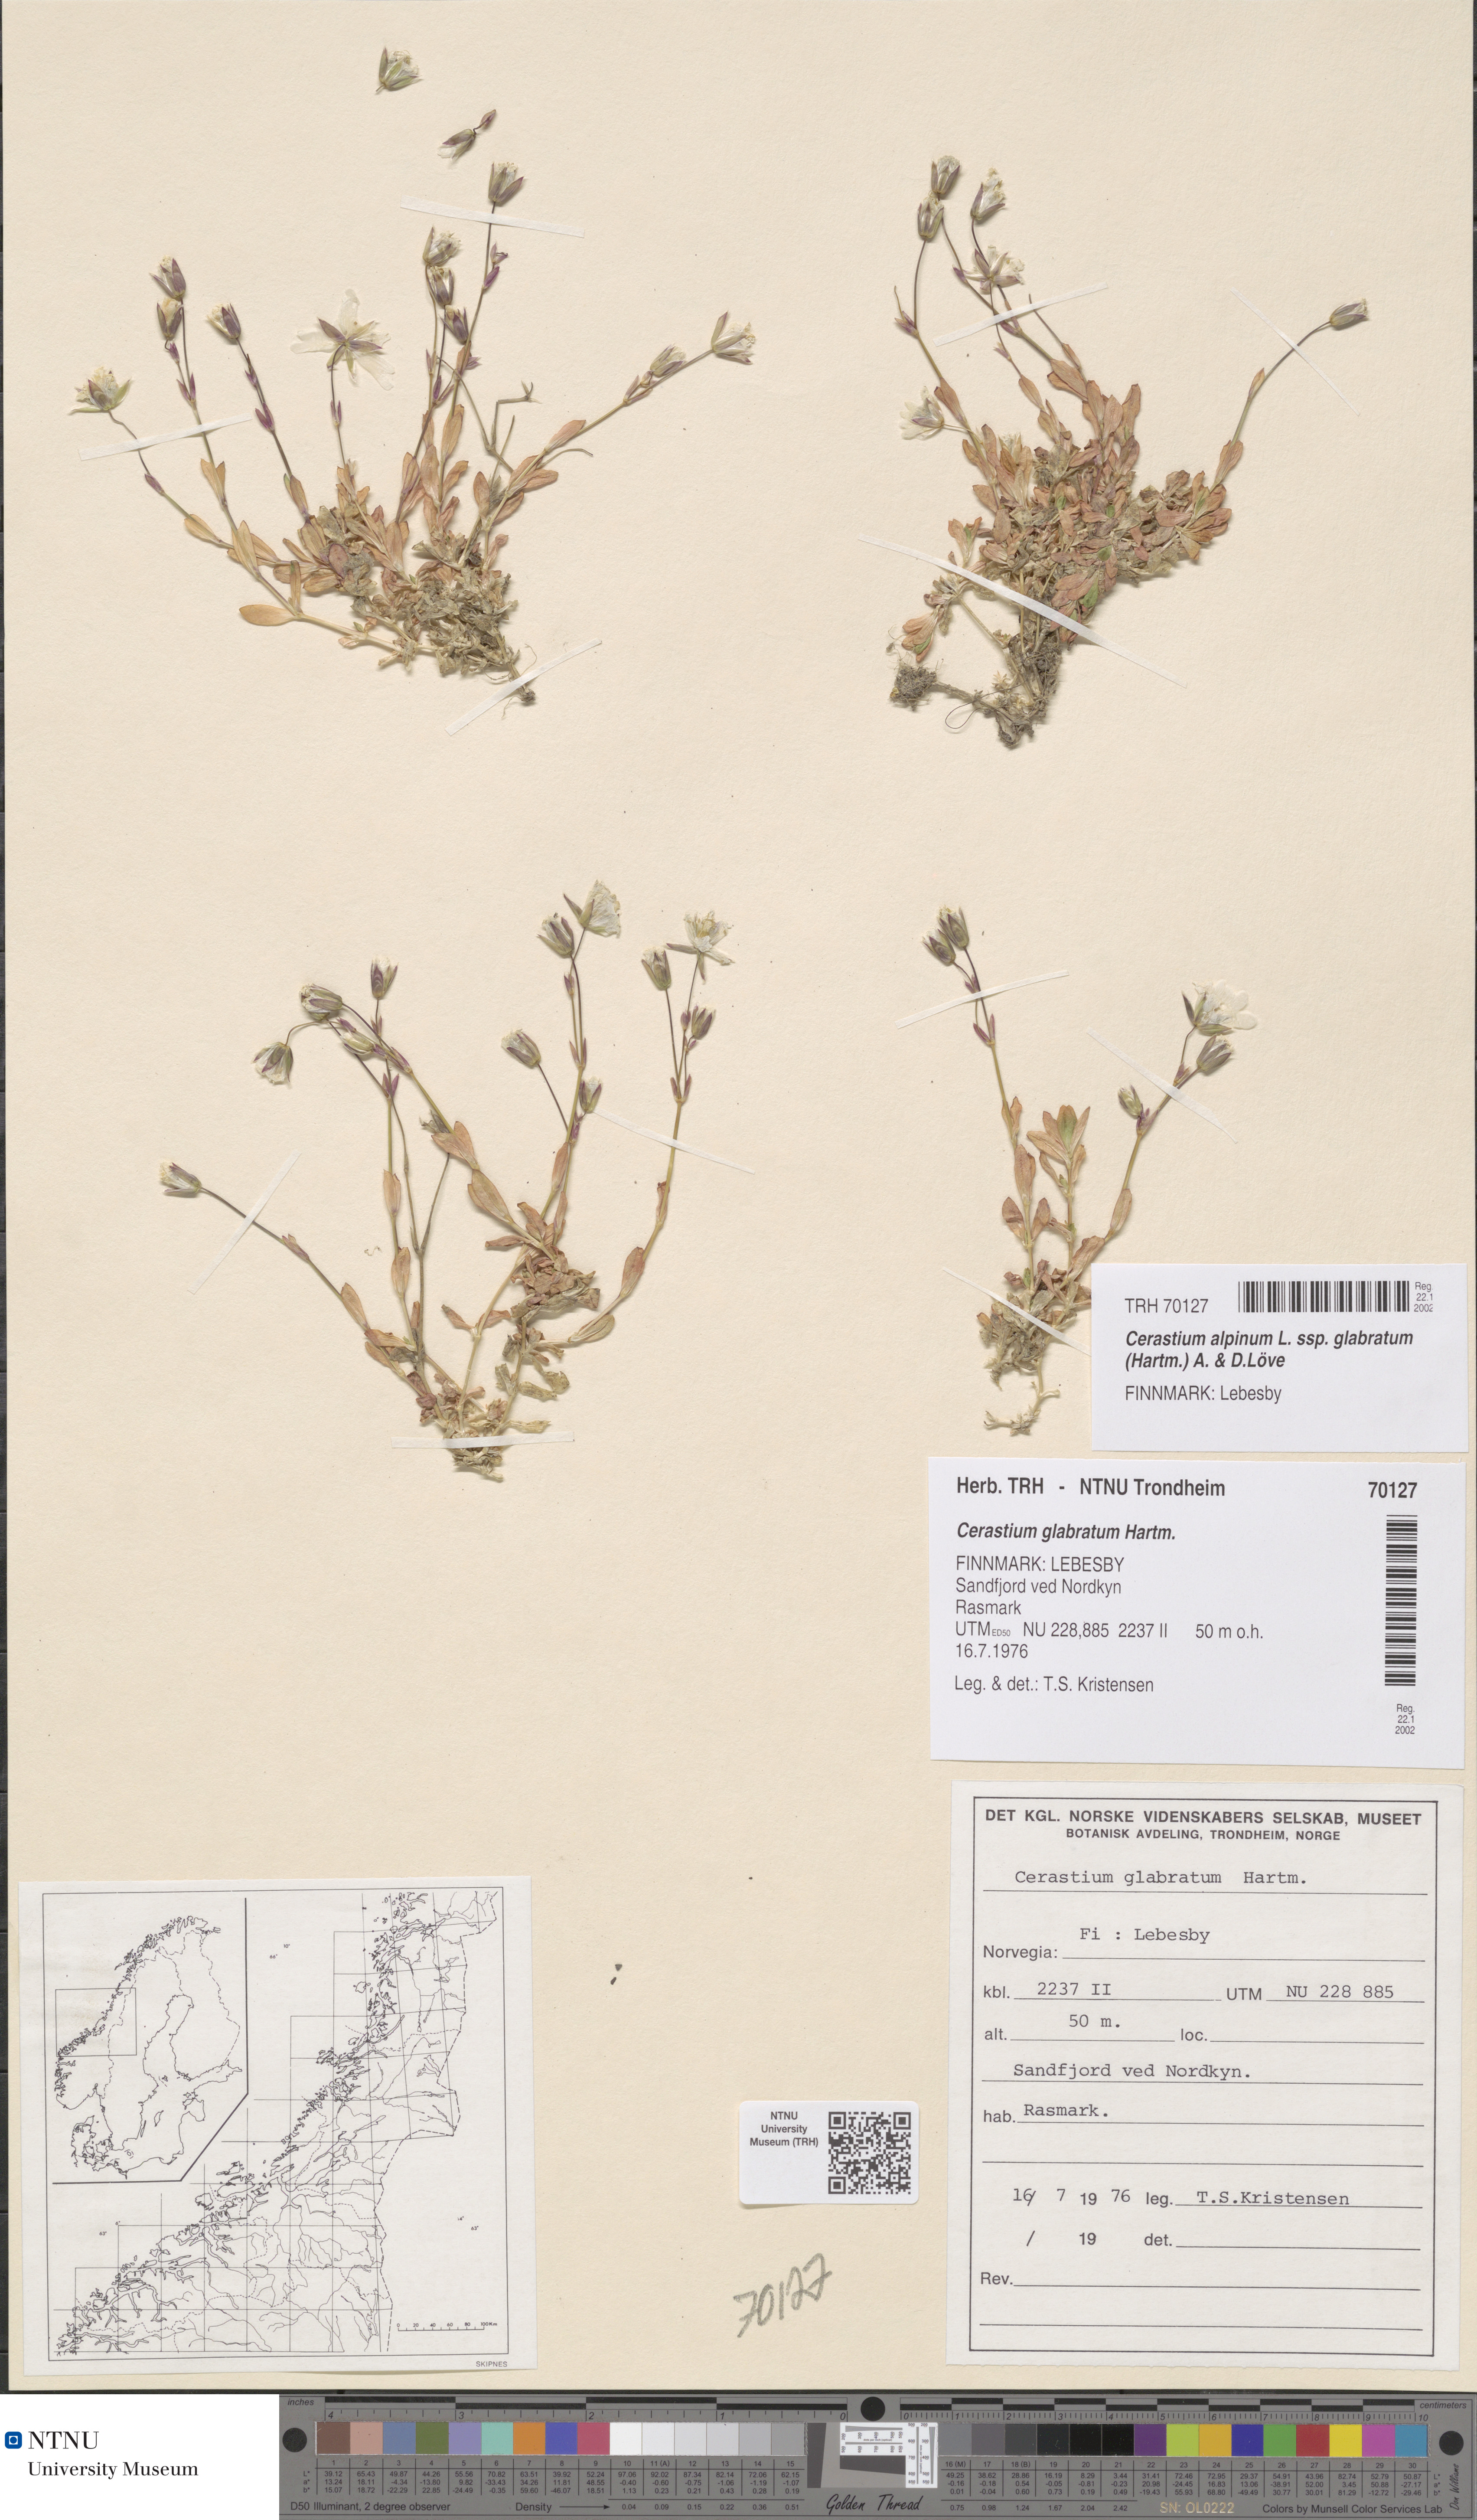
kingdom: Plantae
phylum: Tracheophyta
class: Magnoliopsida
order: Caryophyllales
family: Caryophyllaceae
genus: Cerastium
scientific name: Cerastium alpinum
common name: Alpine mouse-ear
